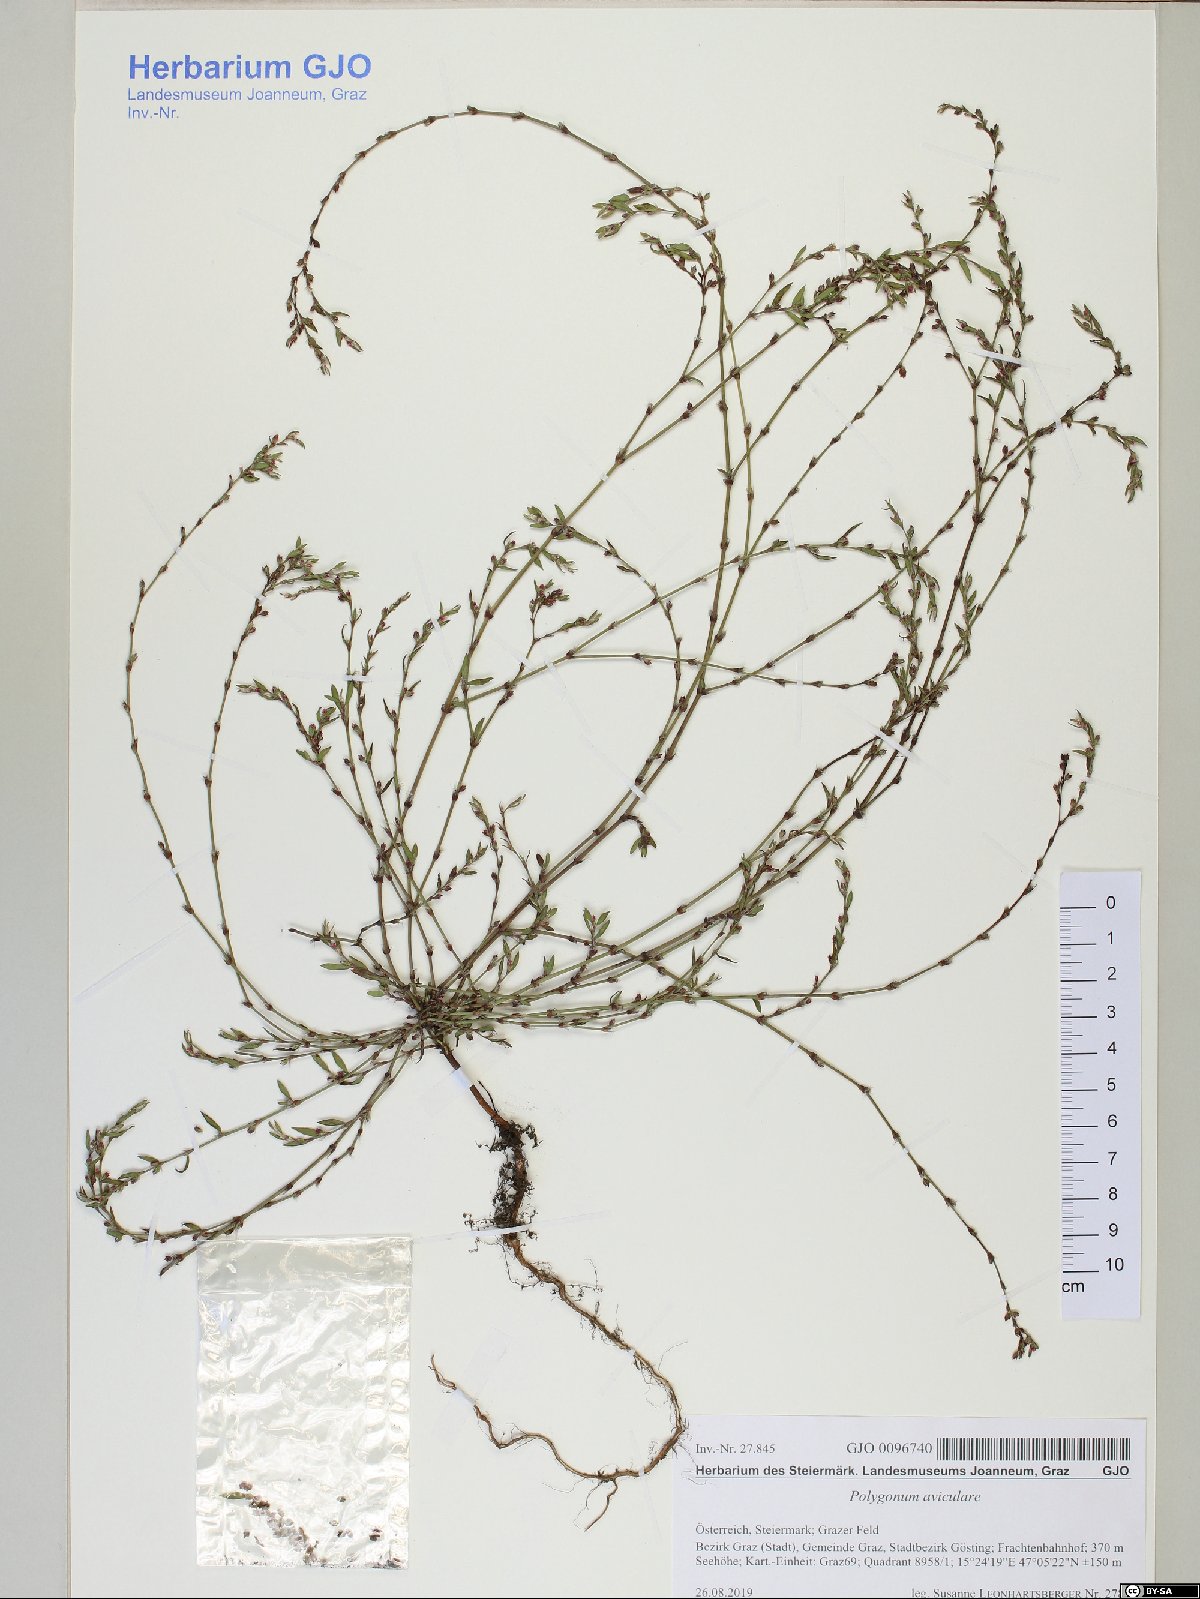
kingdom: Plantae
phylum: Tracheophyta
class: Magnoliopsida
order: Caryophyllales
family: Polygonaceae
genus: Polygonum
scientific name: Polygonum aviculare
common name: Prostrate knotweed
